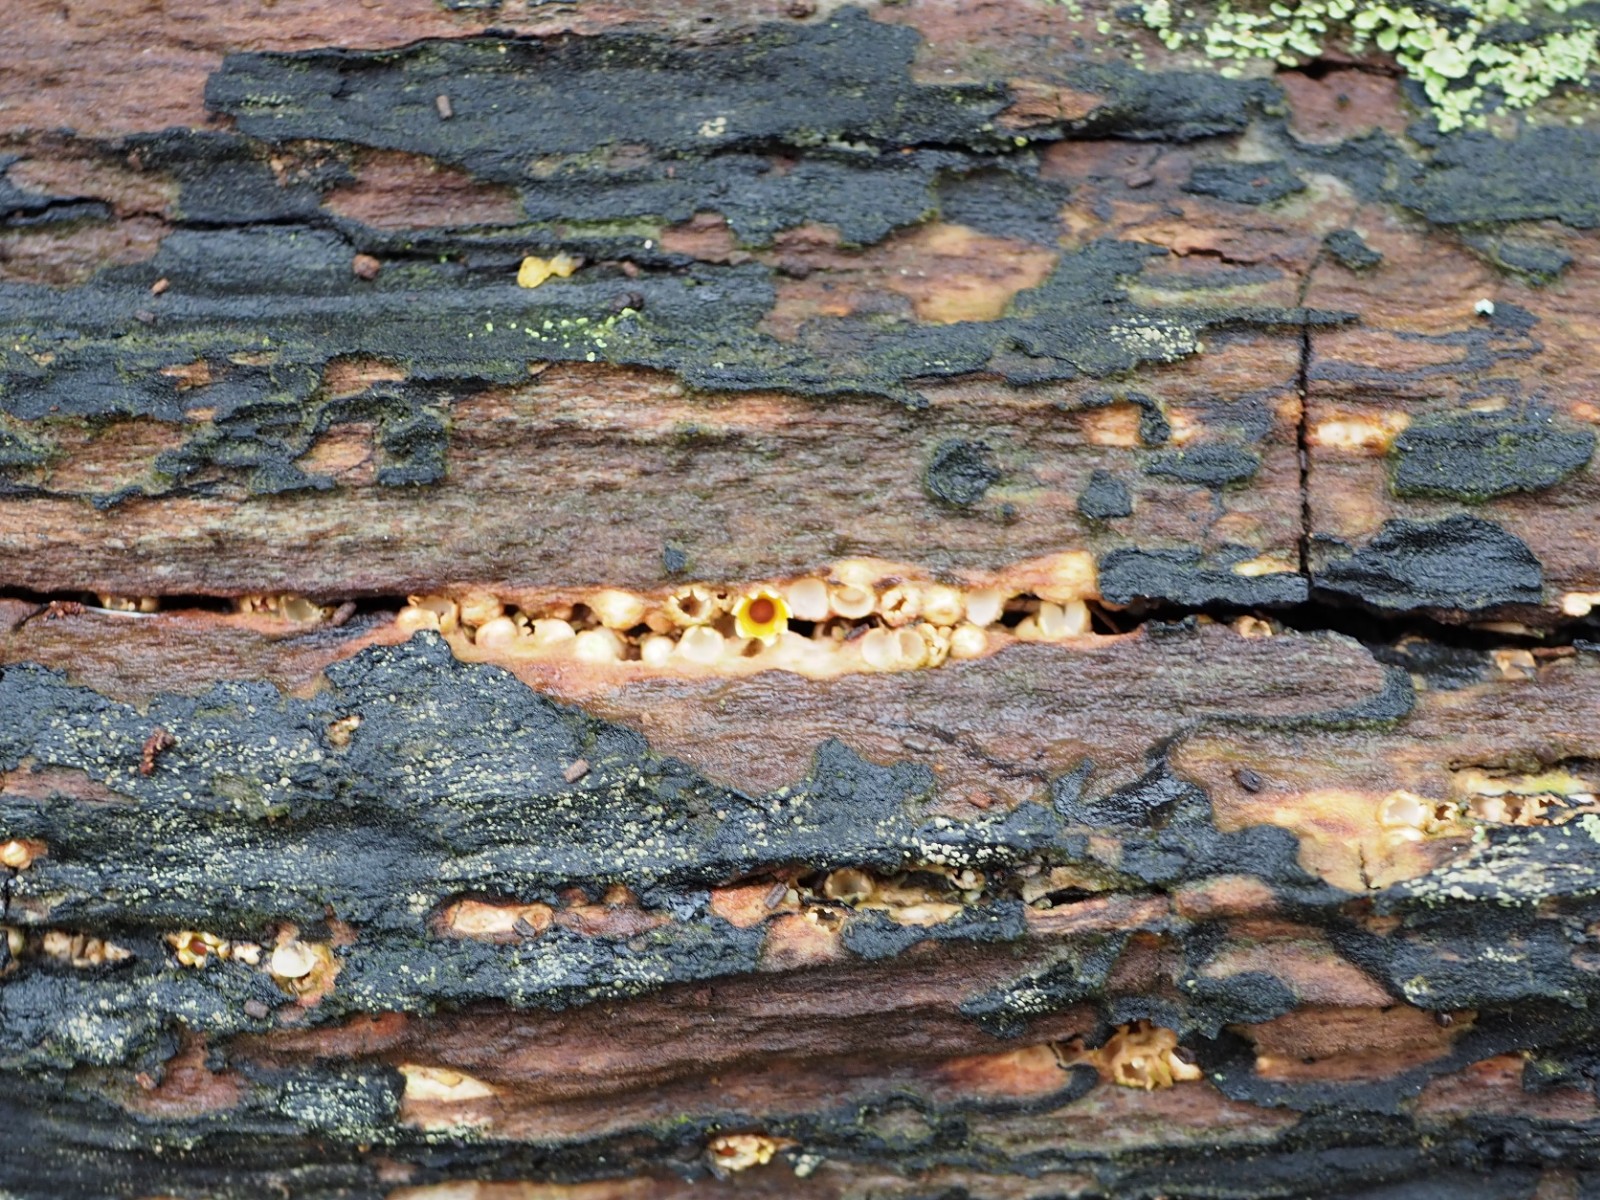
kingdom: Fungi
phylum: Basidiomycota
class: Agaricomycetes
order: Geastrales
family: Geastraceae
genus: Sphaerobolus
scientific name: Sphaerobolus stellatus
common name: bombekaster
